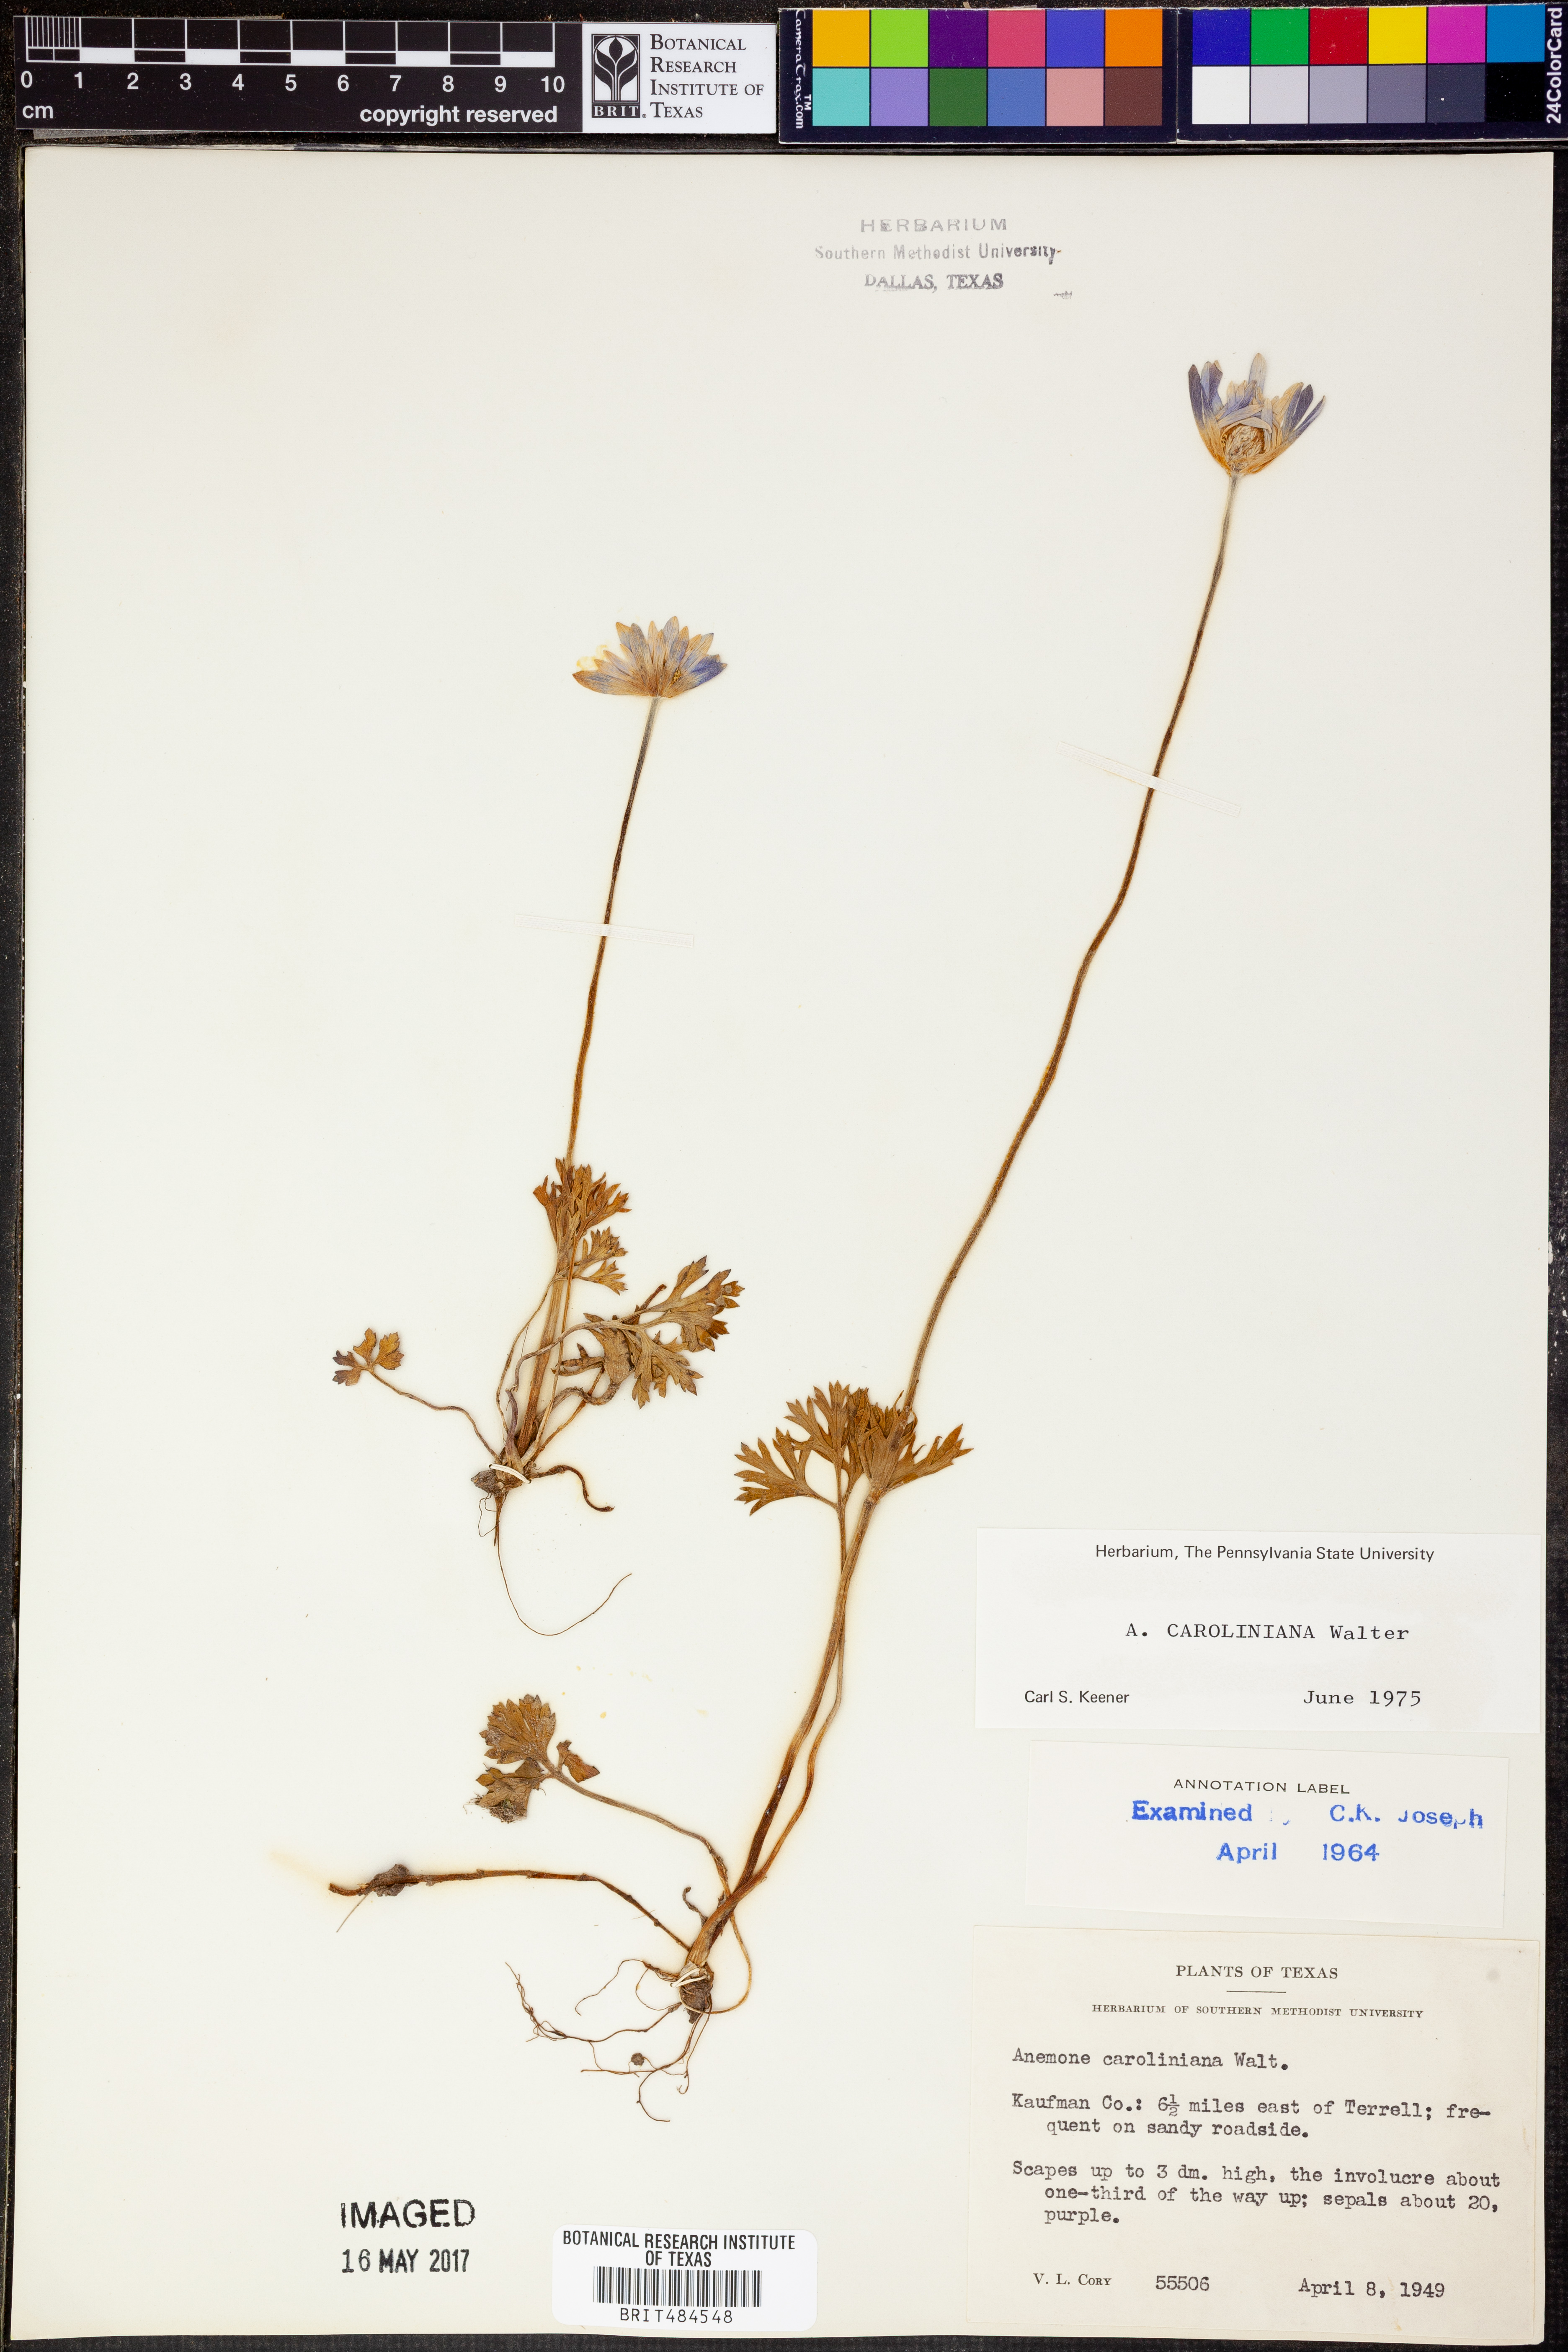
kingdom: Plantae
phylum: Tracheophyta
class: Magnoliopsida
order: Ranunculales
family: Ranunculaceae
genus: Anemone
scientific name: Anemone caroliniana
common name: Carolina anemone
